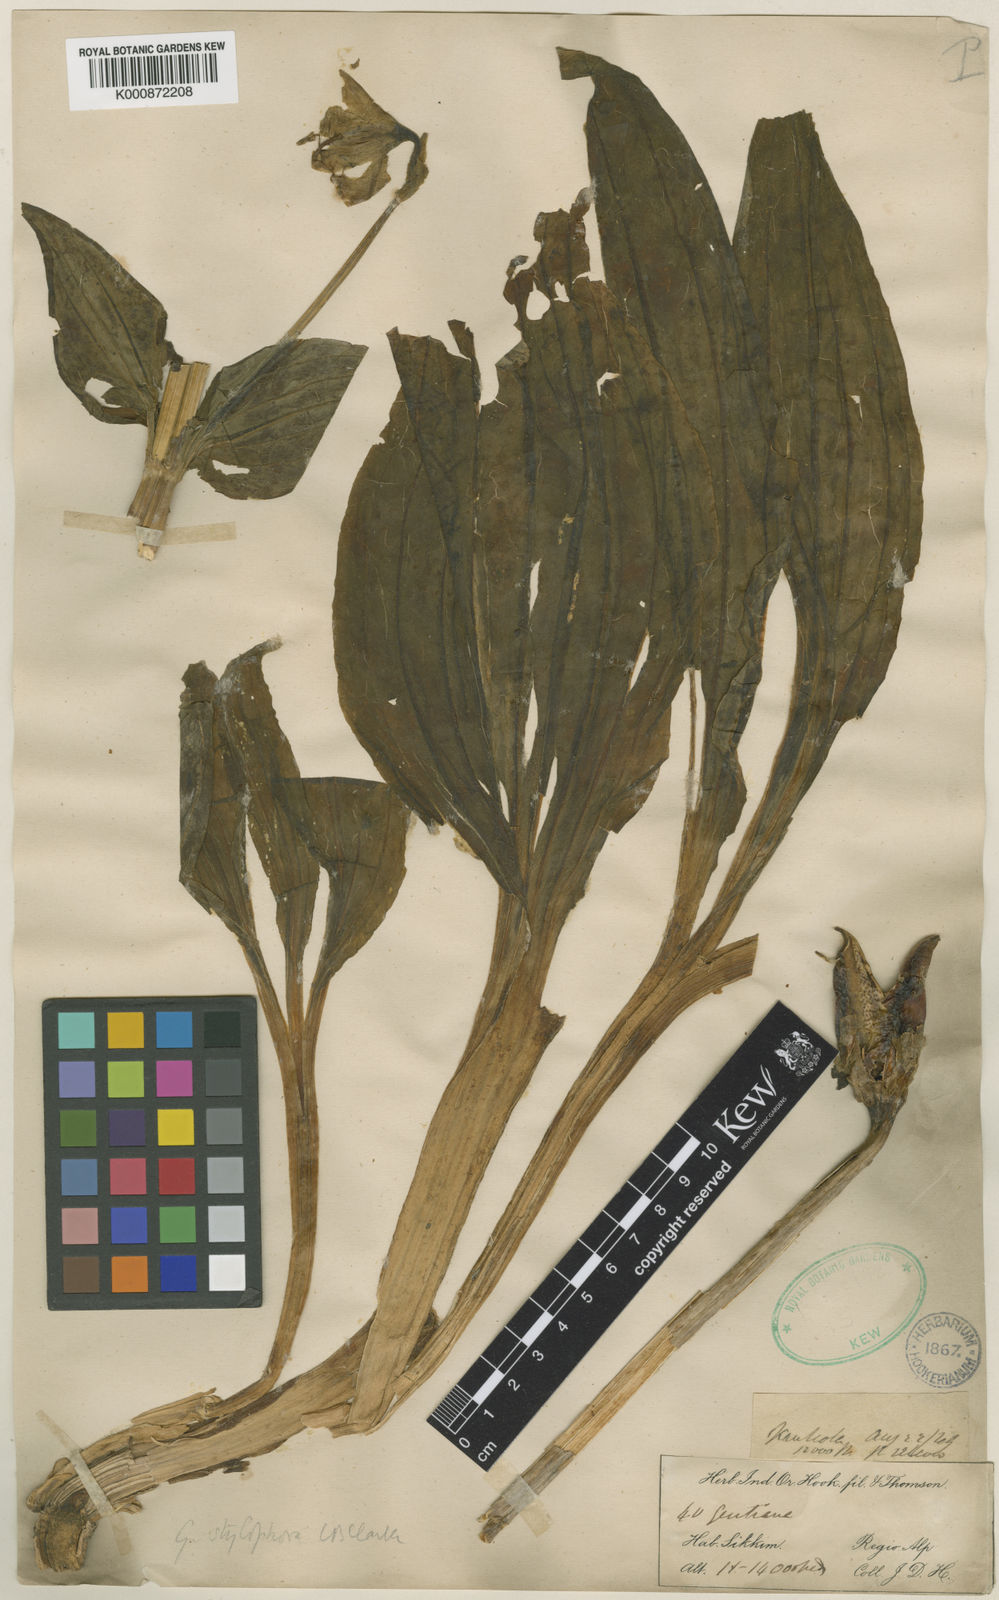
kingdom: Plantae
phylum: Tracheophyta
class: Magnoliopsida
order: Gentianales
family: Gentianaceae
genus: Megacodon
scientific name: Megacodon stylophorus
